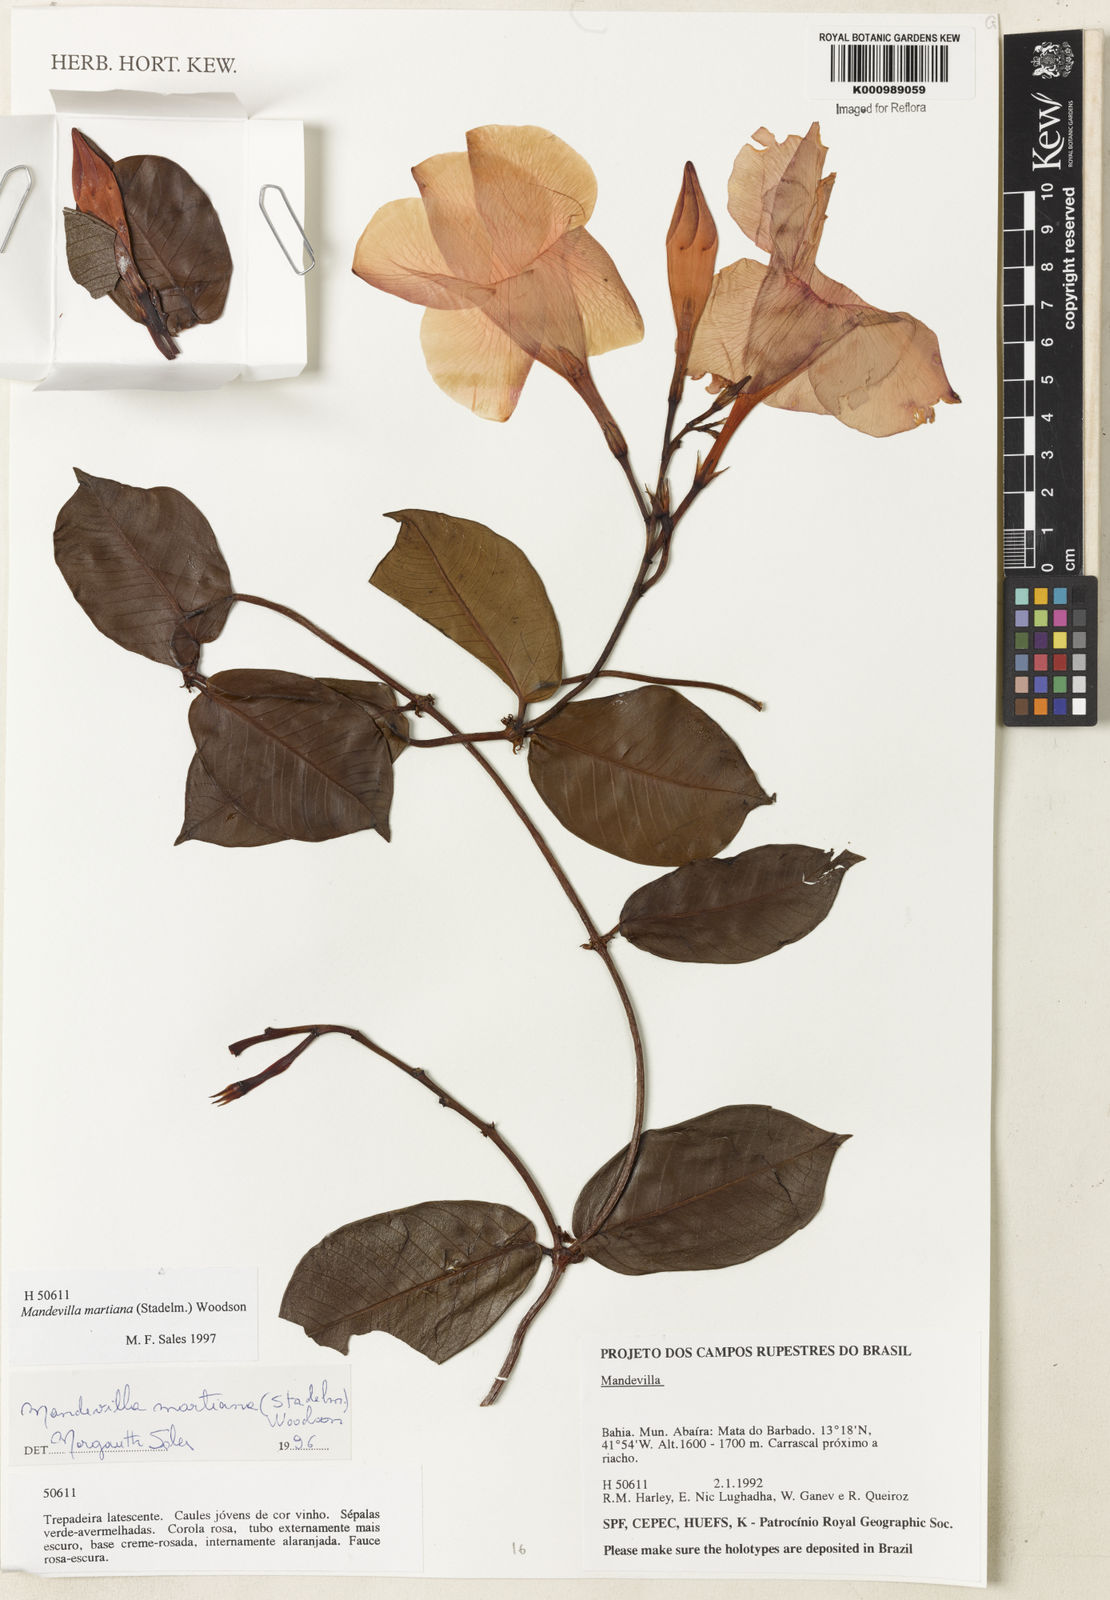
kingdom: Plantae
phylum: Tracheophyta
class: Magnoliopsida
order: Gentianales
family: Apocynaceae
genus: Mandevilla
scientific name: Mandevilla martiana
